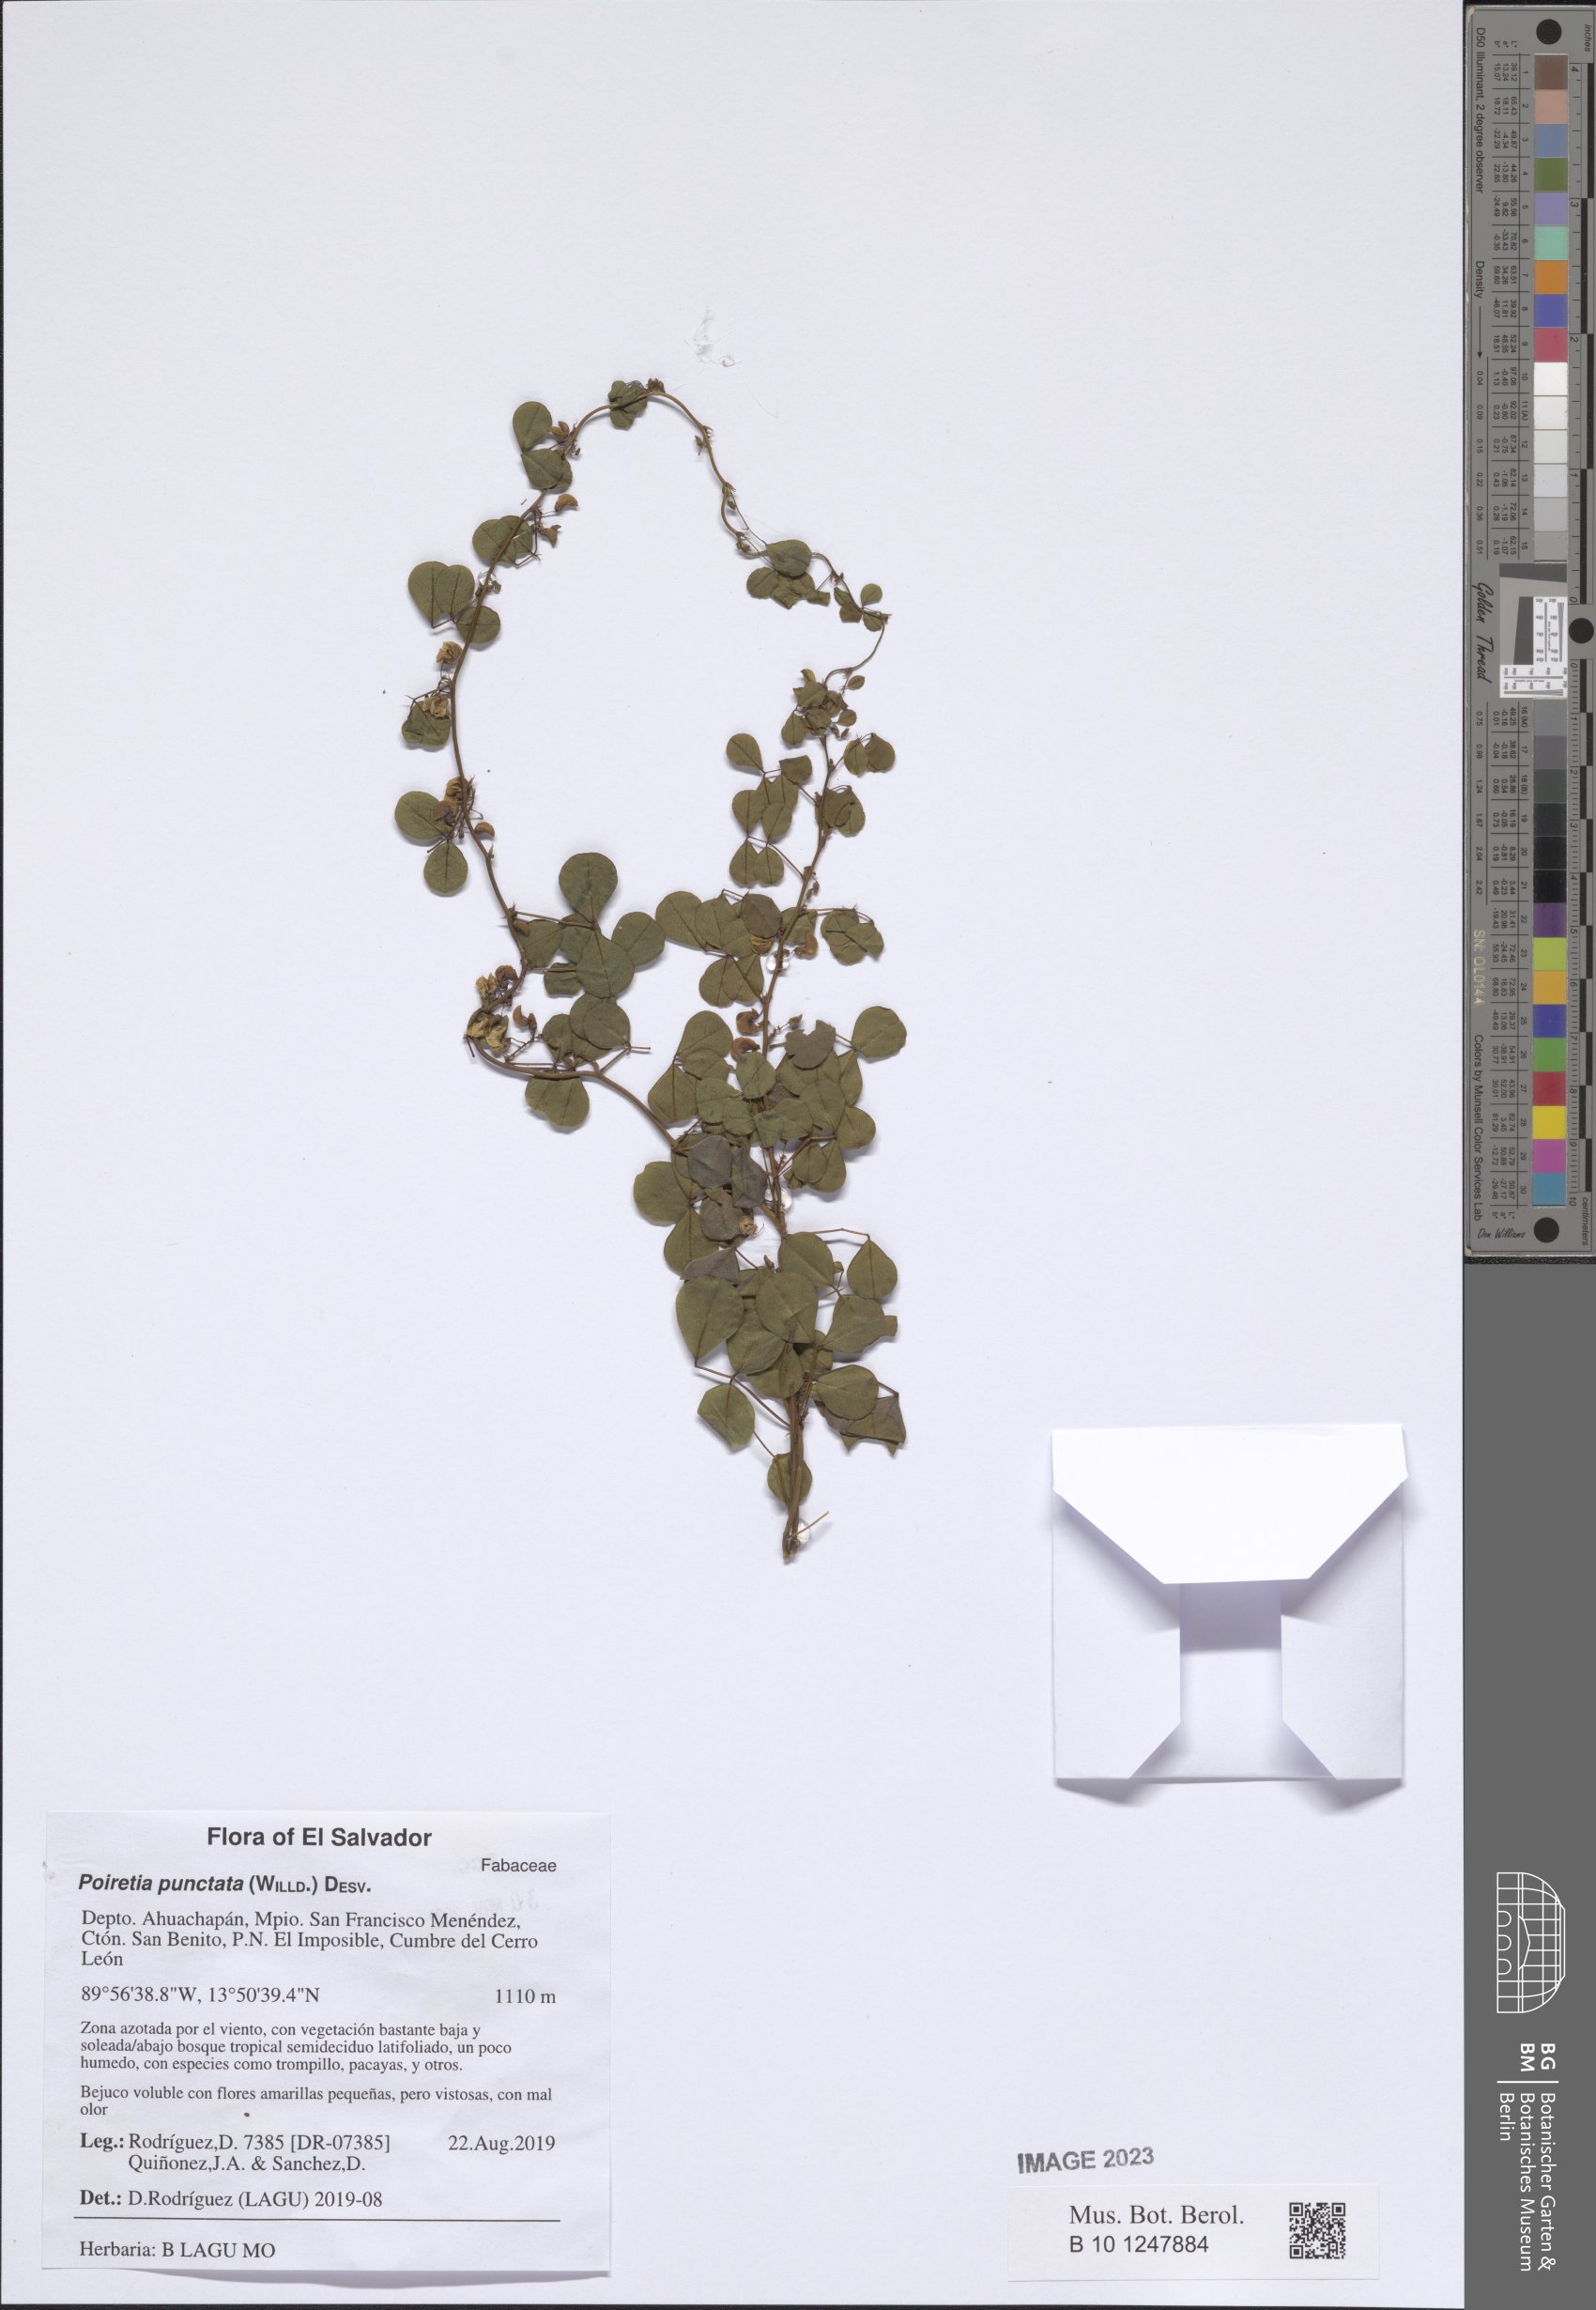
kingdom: Plantae
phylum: Tracheophyta
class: Magnoliopsida
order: Fabales
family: Fabaceae
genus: Poiretia
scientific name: Poiretia punctata
